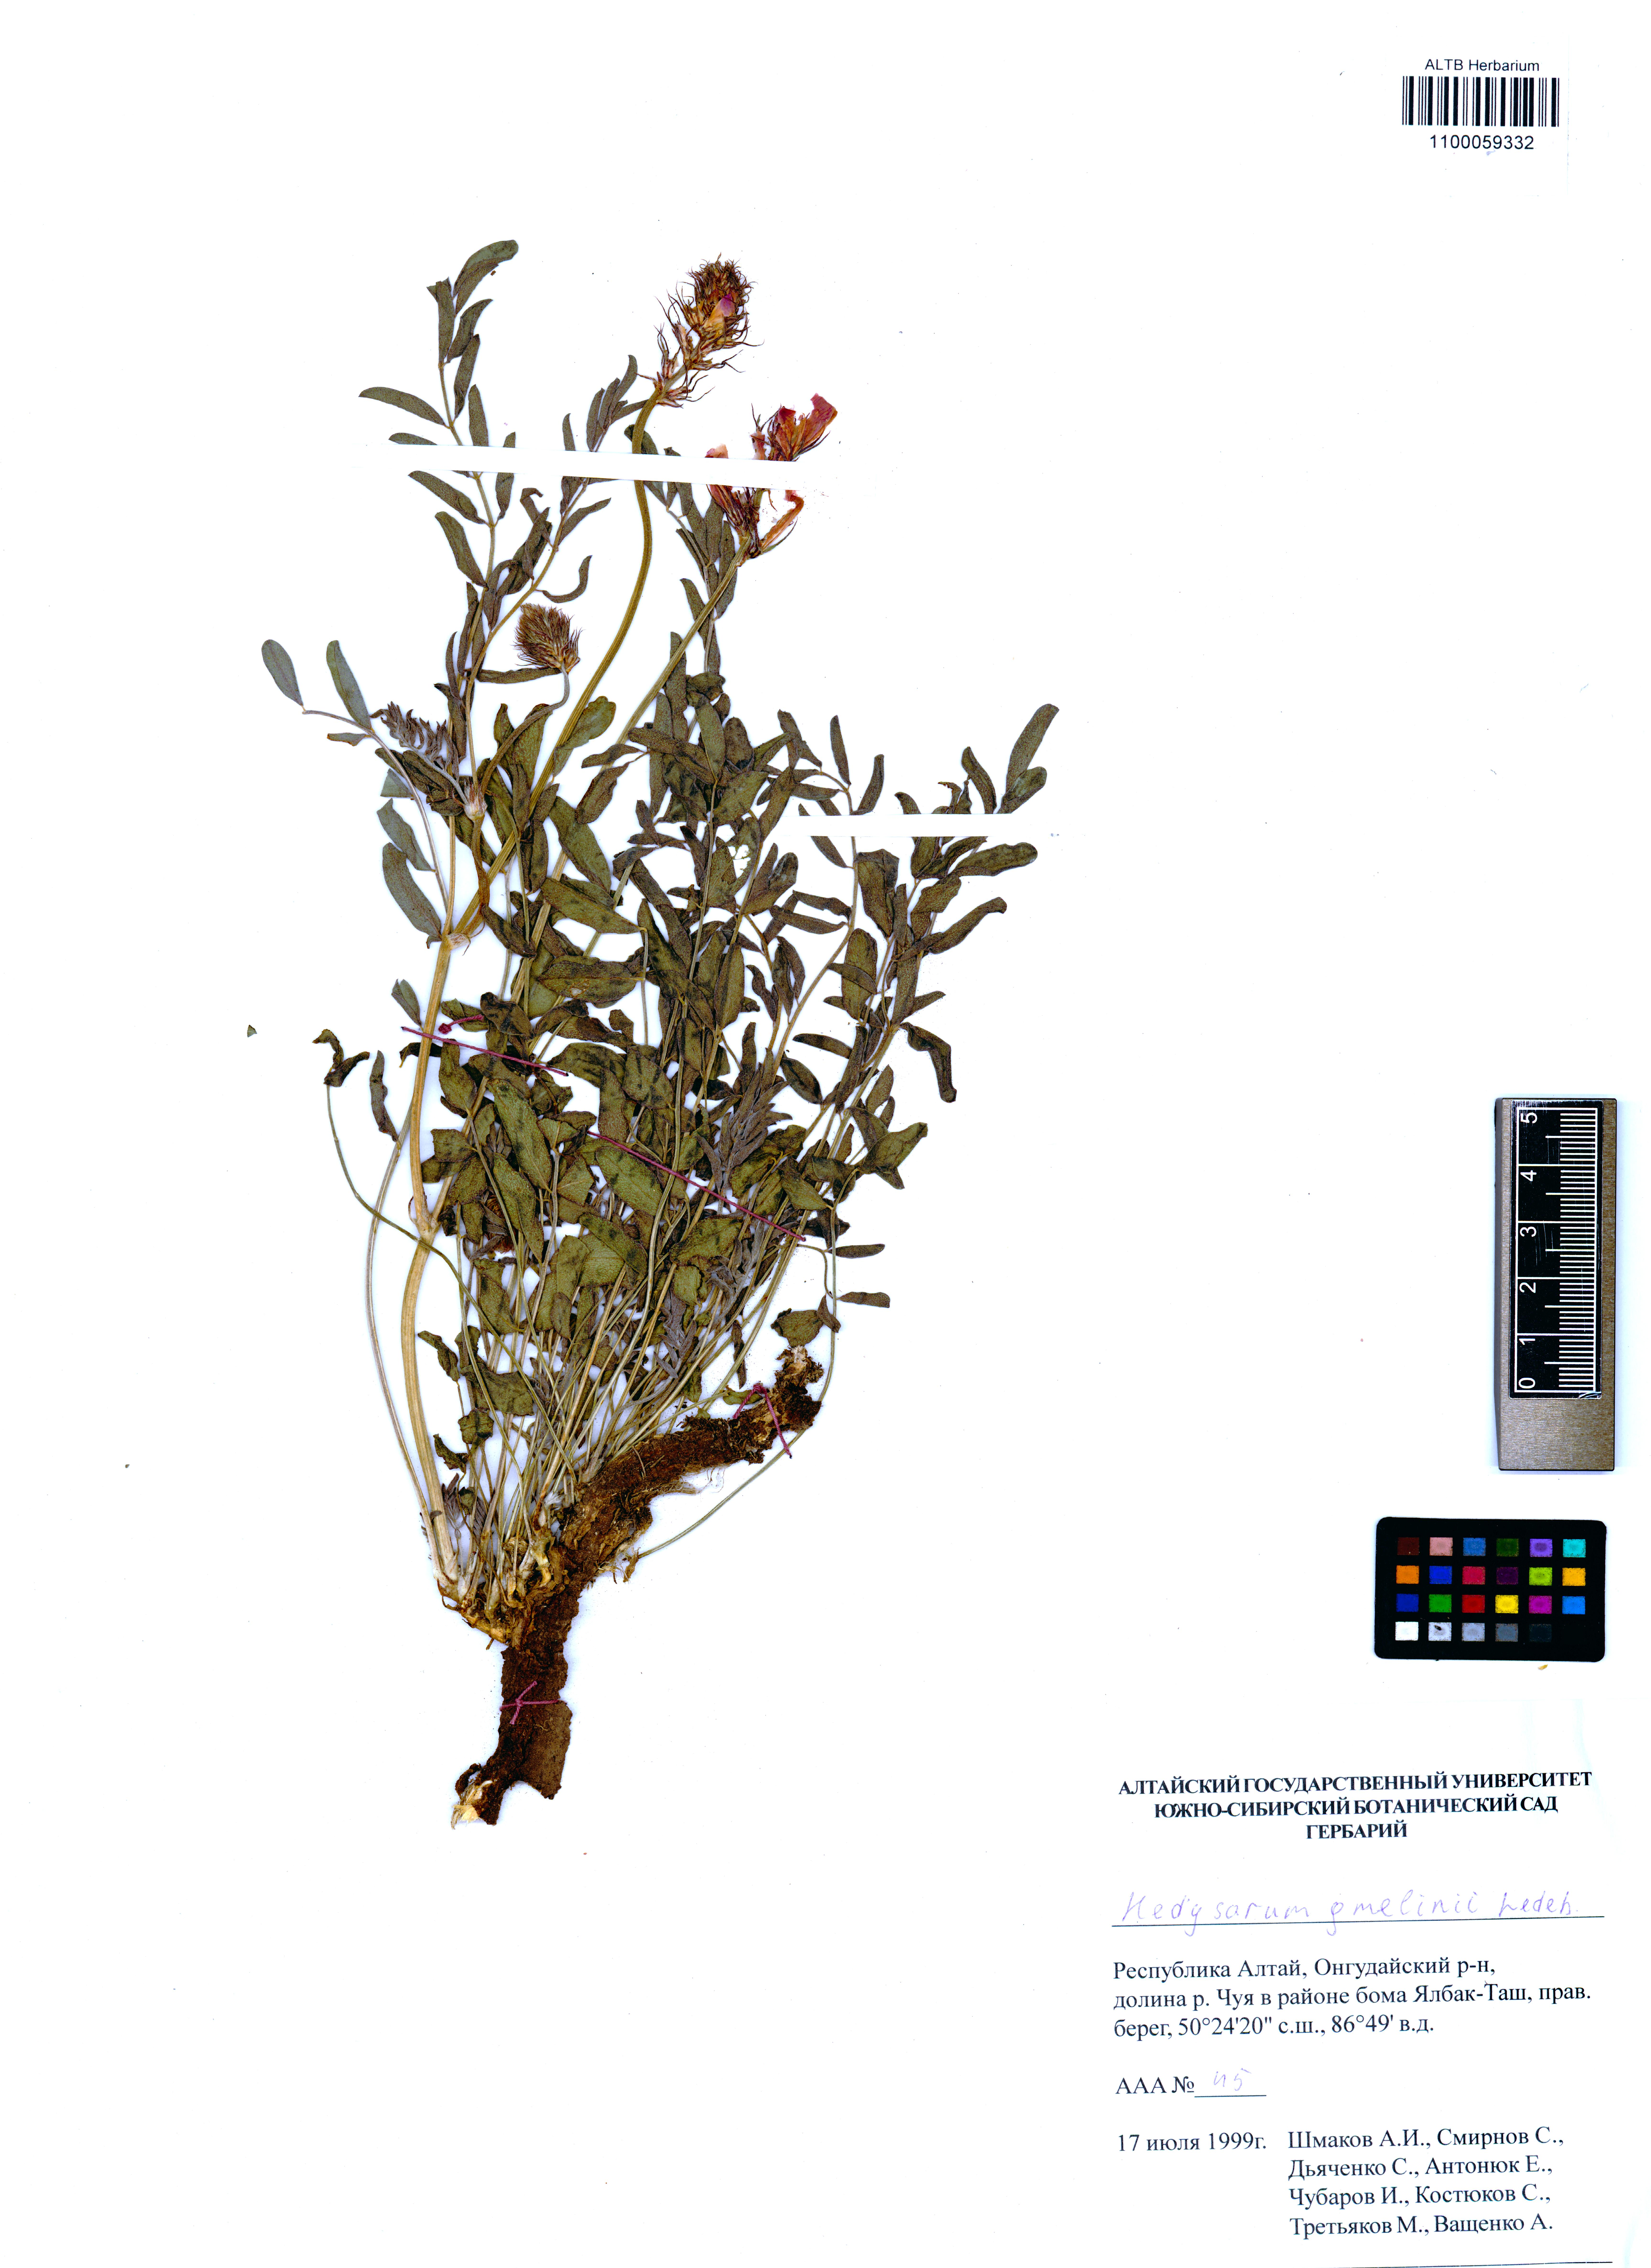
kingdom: Plantae
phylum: Tracheophyta
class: Magnoliopsida
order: Fabales
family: Fabaceae
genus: Hedysarum
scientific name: Hedysarum gmelinii
